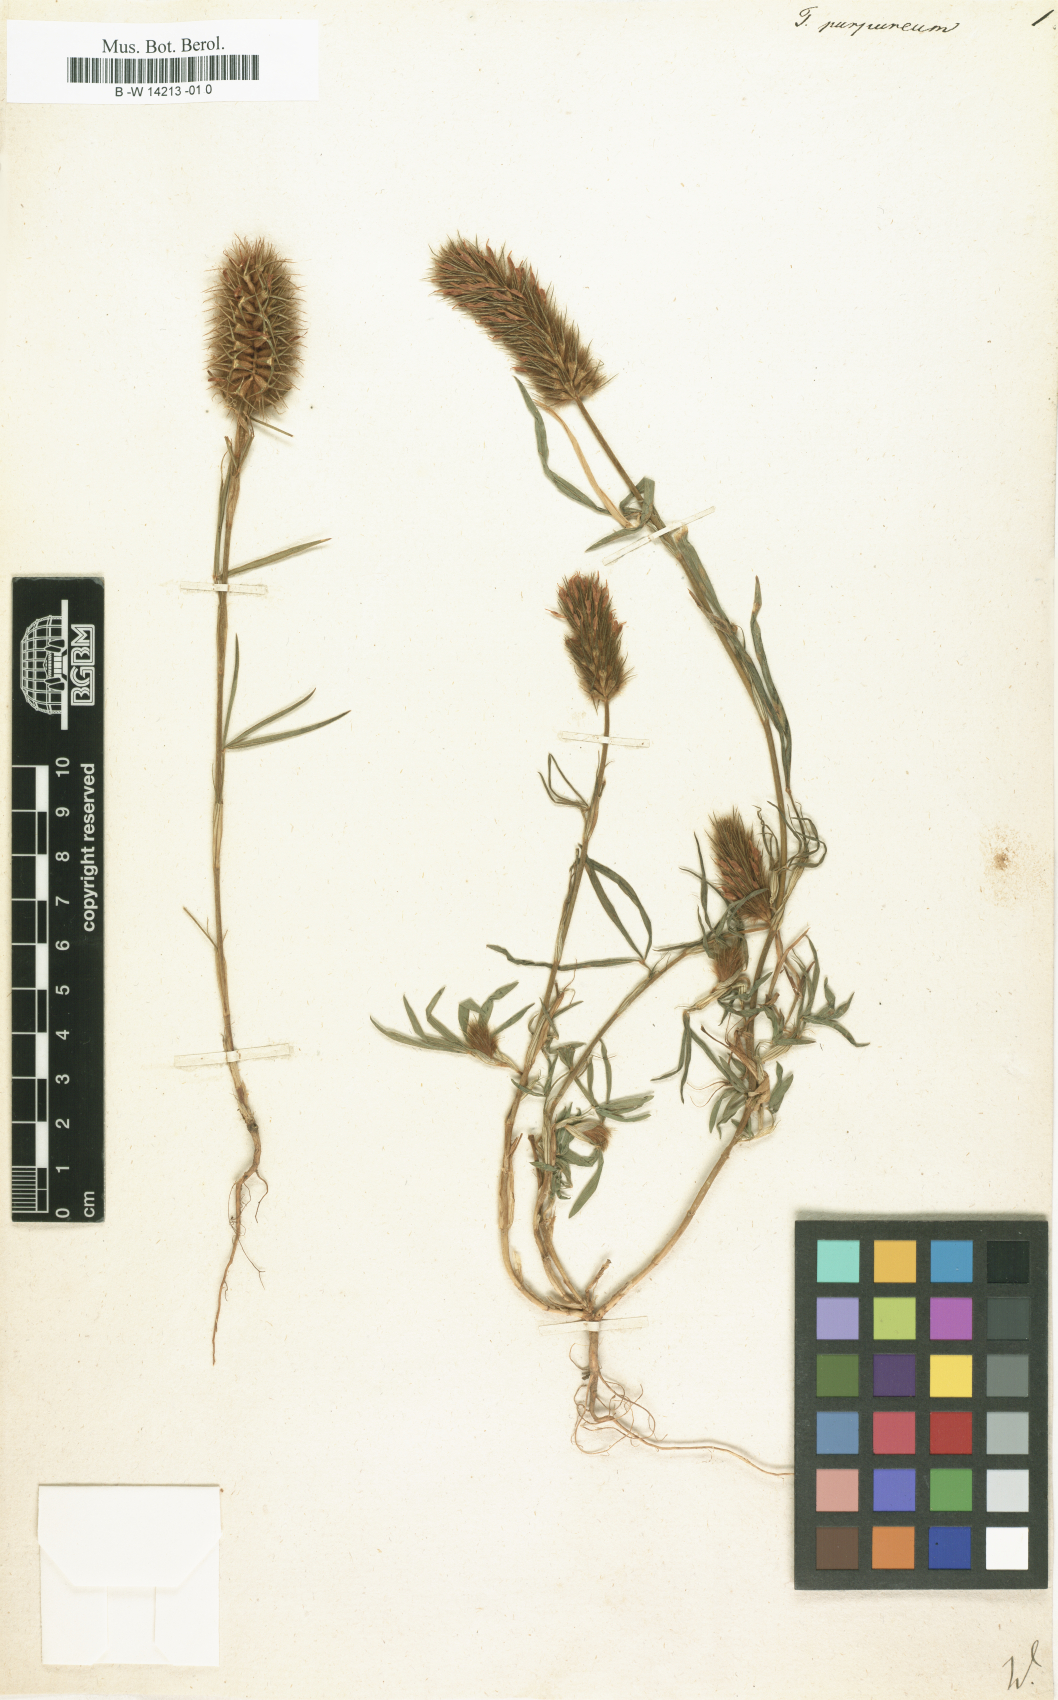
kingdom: Plantae
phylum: Tracheophyta
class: Magnoliopsida
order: Fabales
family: Fabaceae
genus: Trifolium
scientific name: Trifolium purpureum
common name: Purple clover
